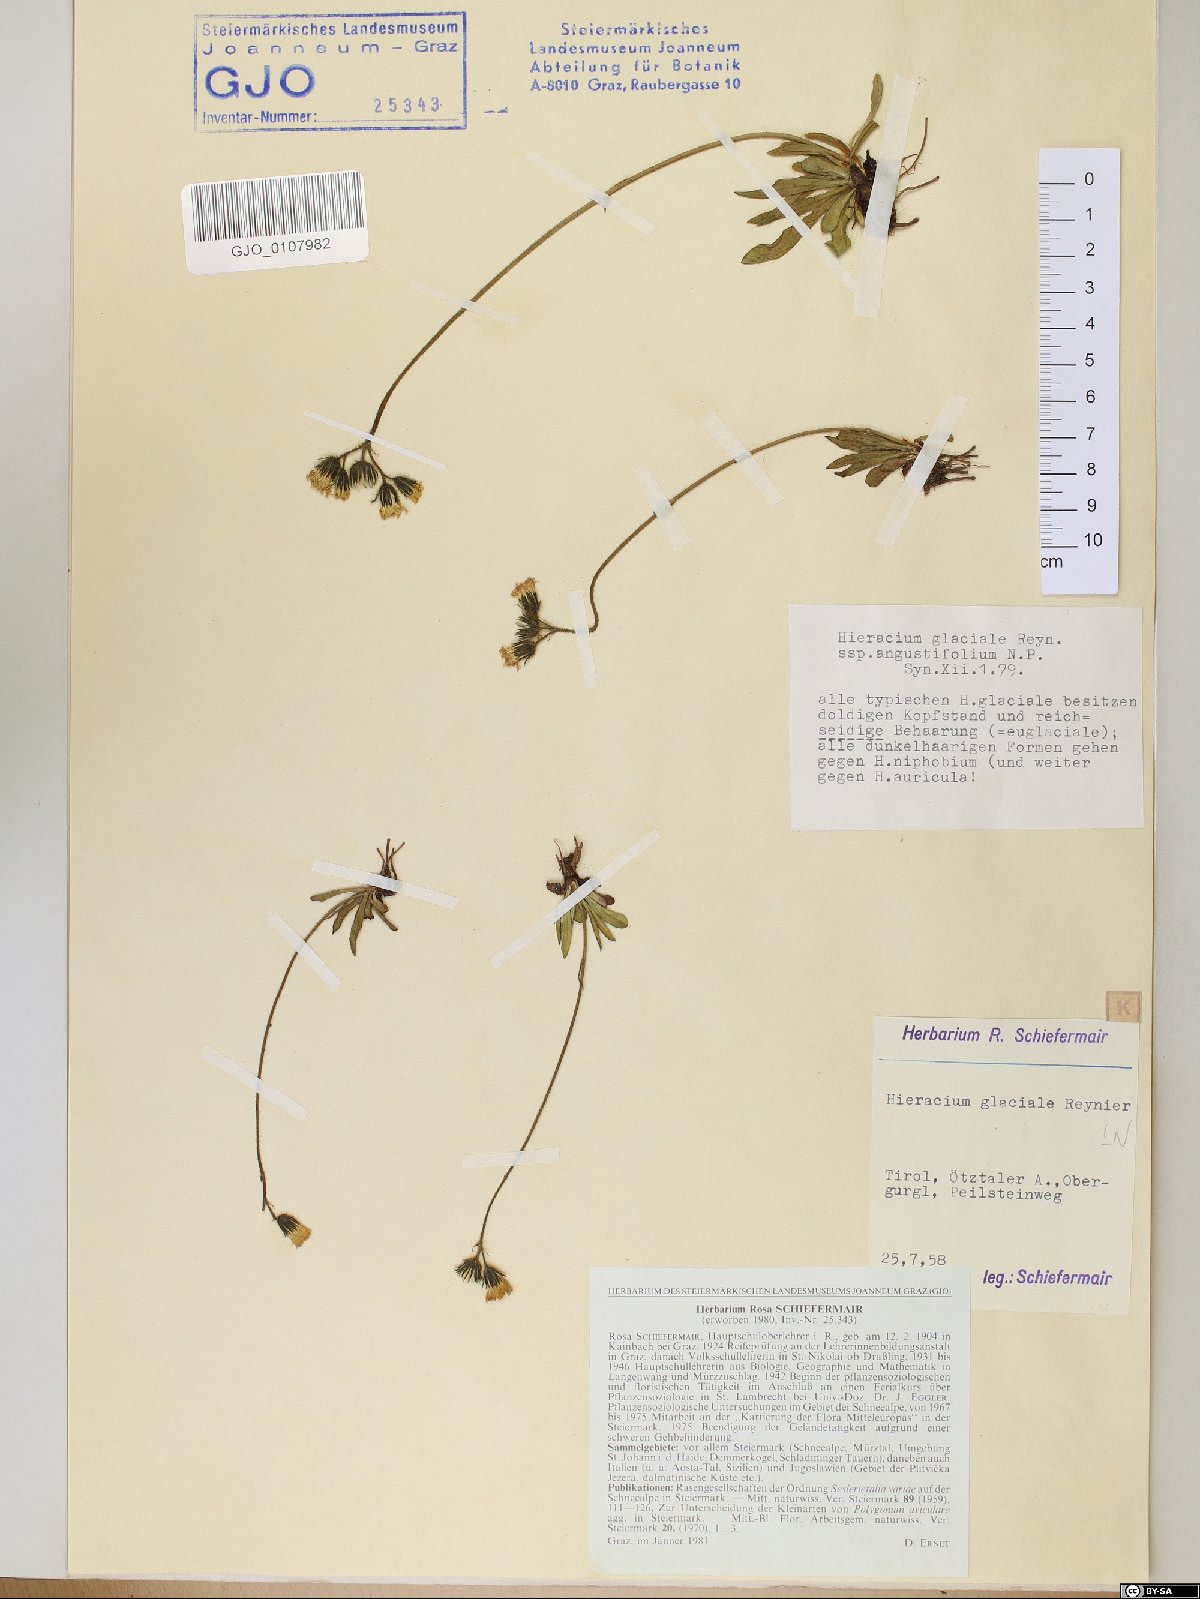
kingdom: Plantae
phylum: Tracheophyta
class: Magnoliopsida
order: Asterales
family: Asteraceae
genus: Pilosella
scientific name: Pilosella glacialis
